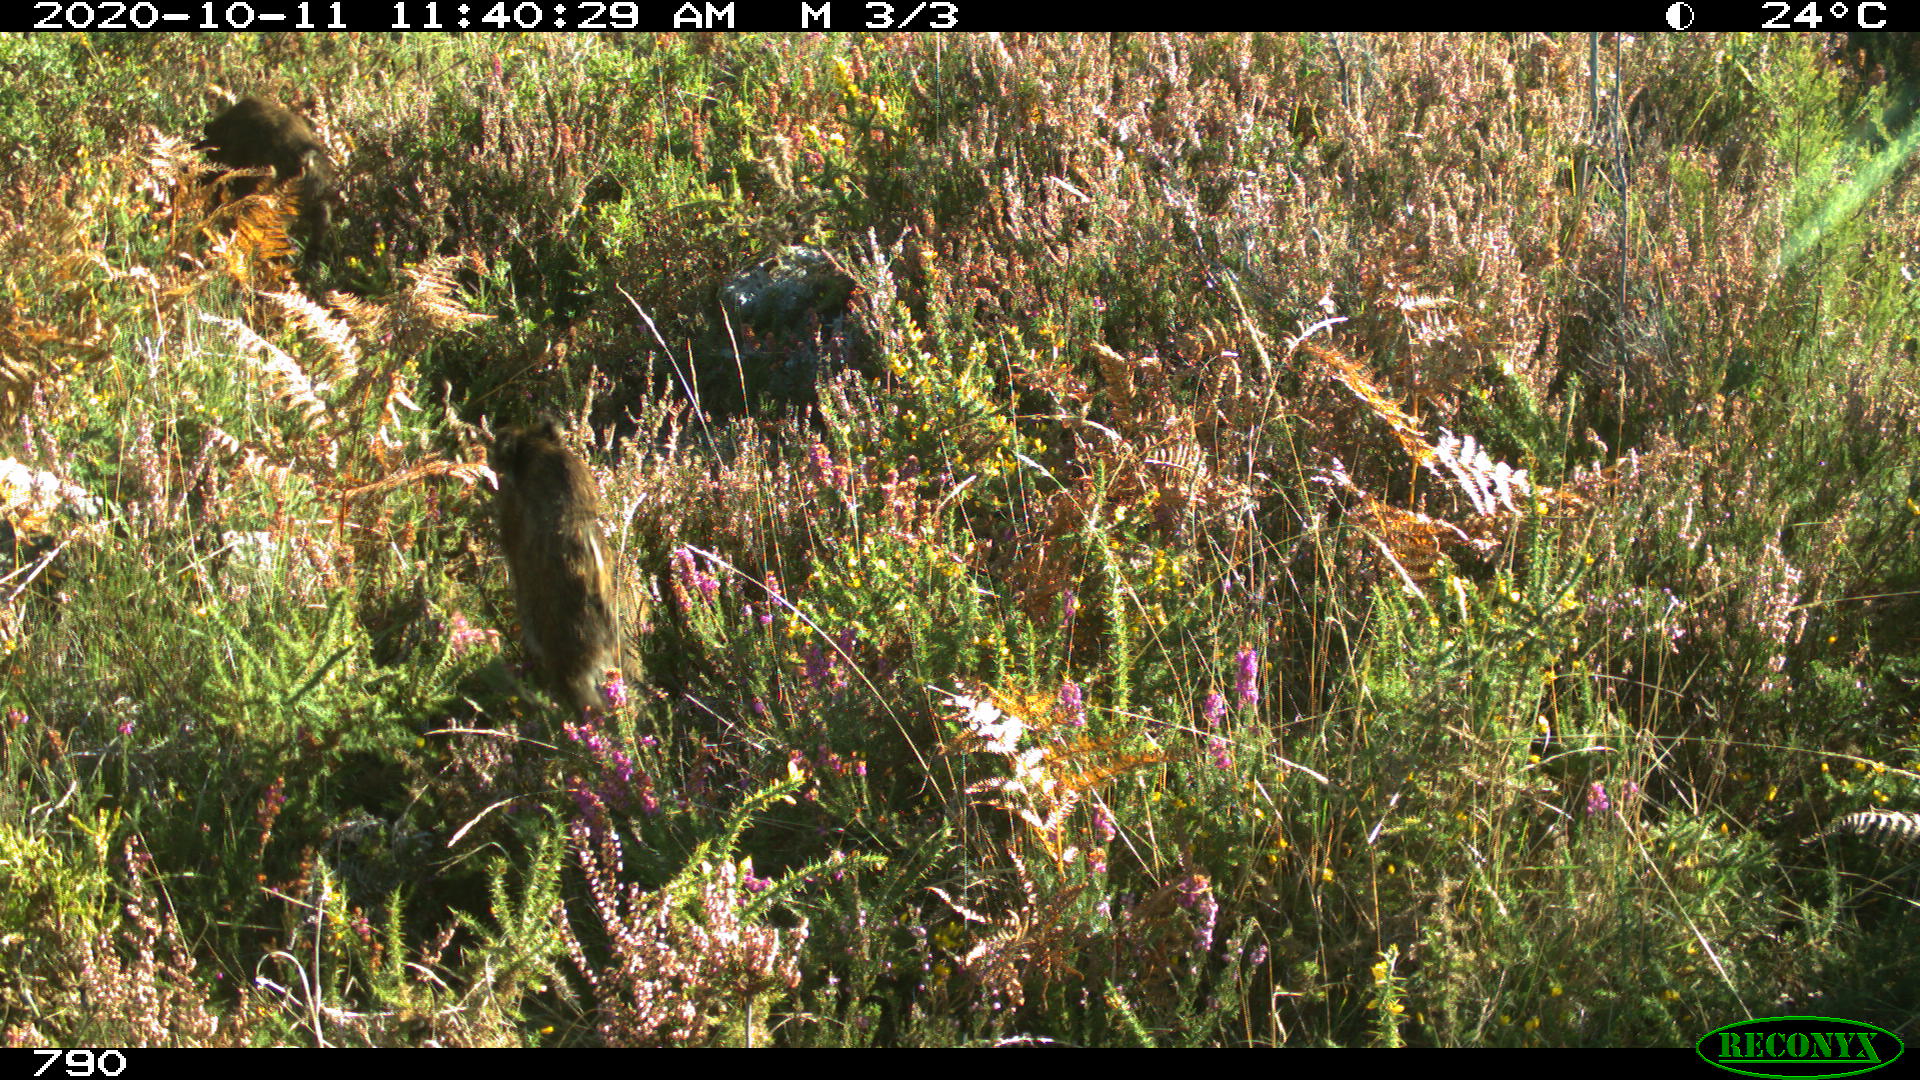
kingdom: Animalia
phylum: Chordata
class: Mammalia
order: Artiodactyla
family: Suidae
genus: Sus
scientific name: Sus scrofa
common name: Wild boar
